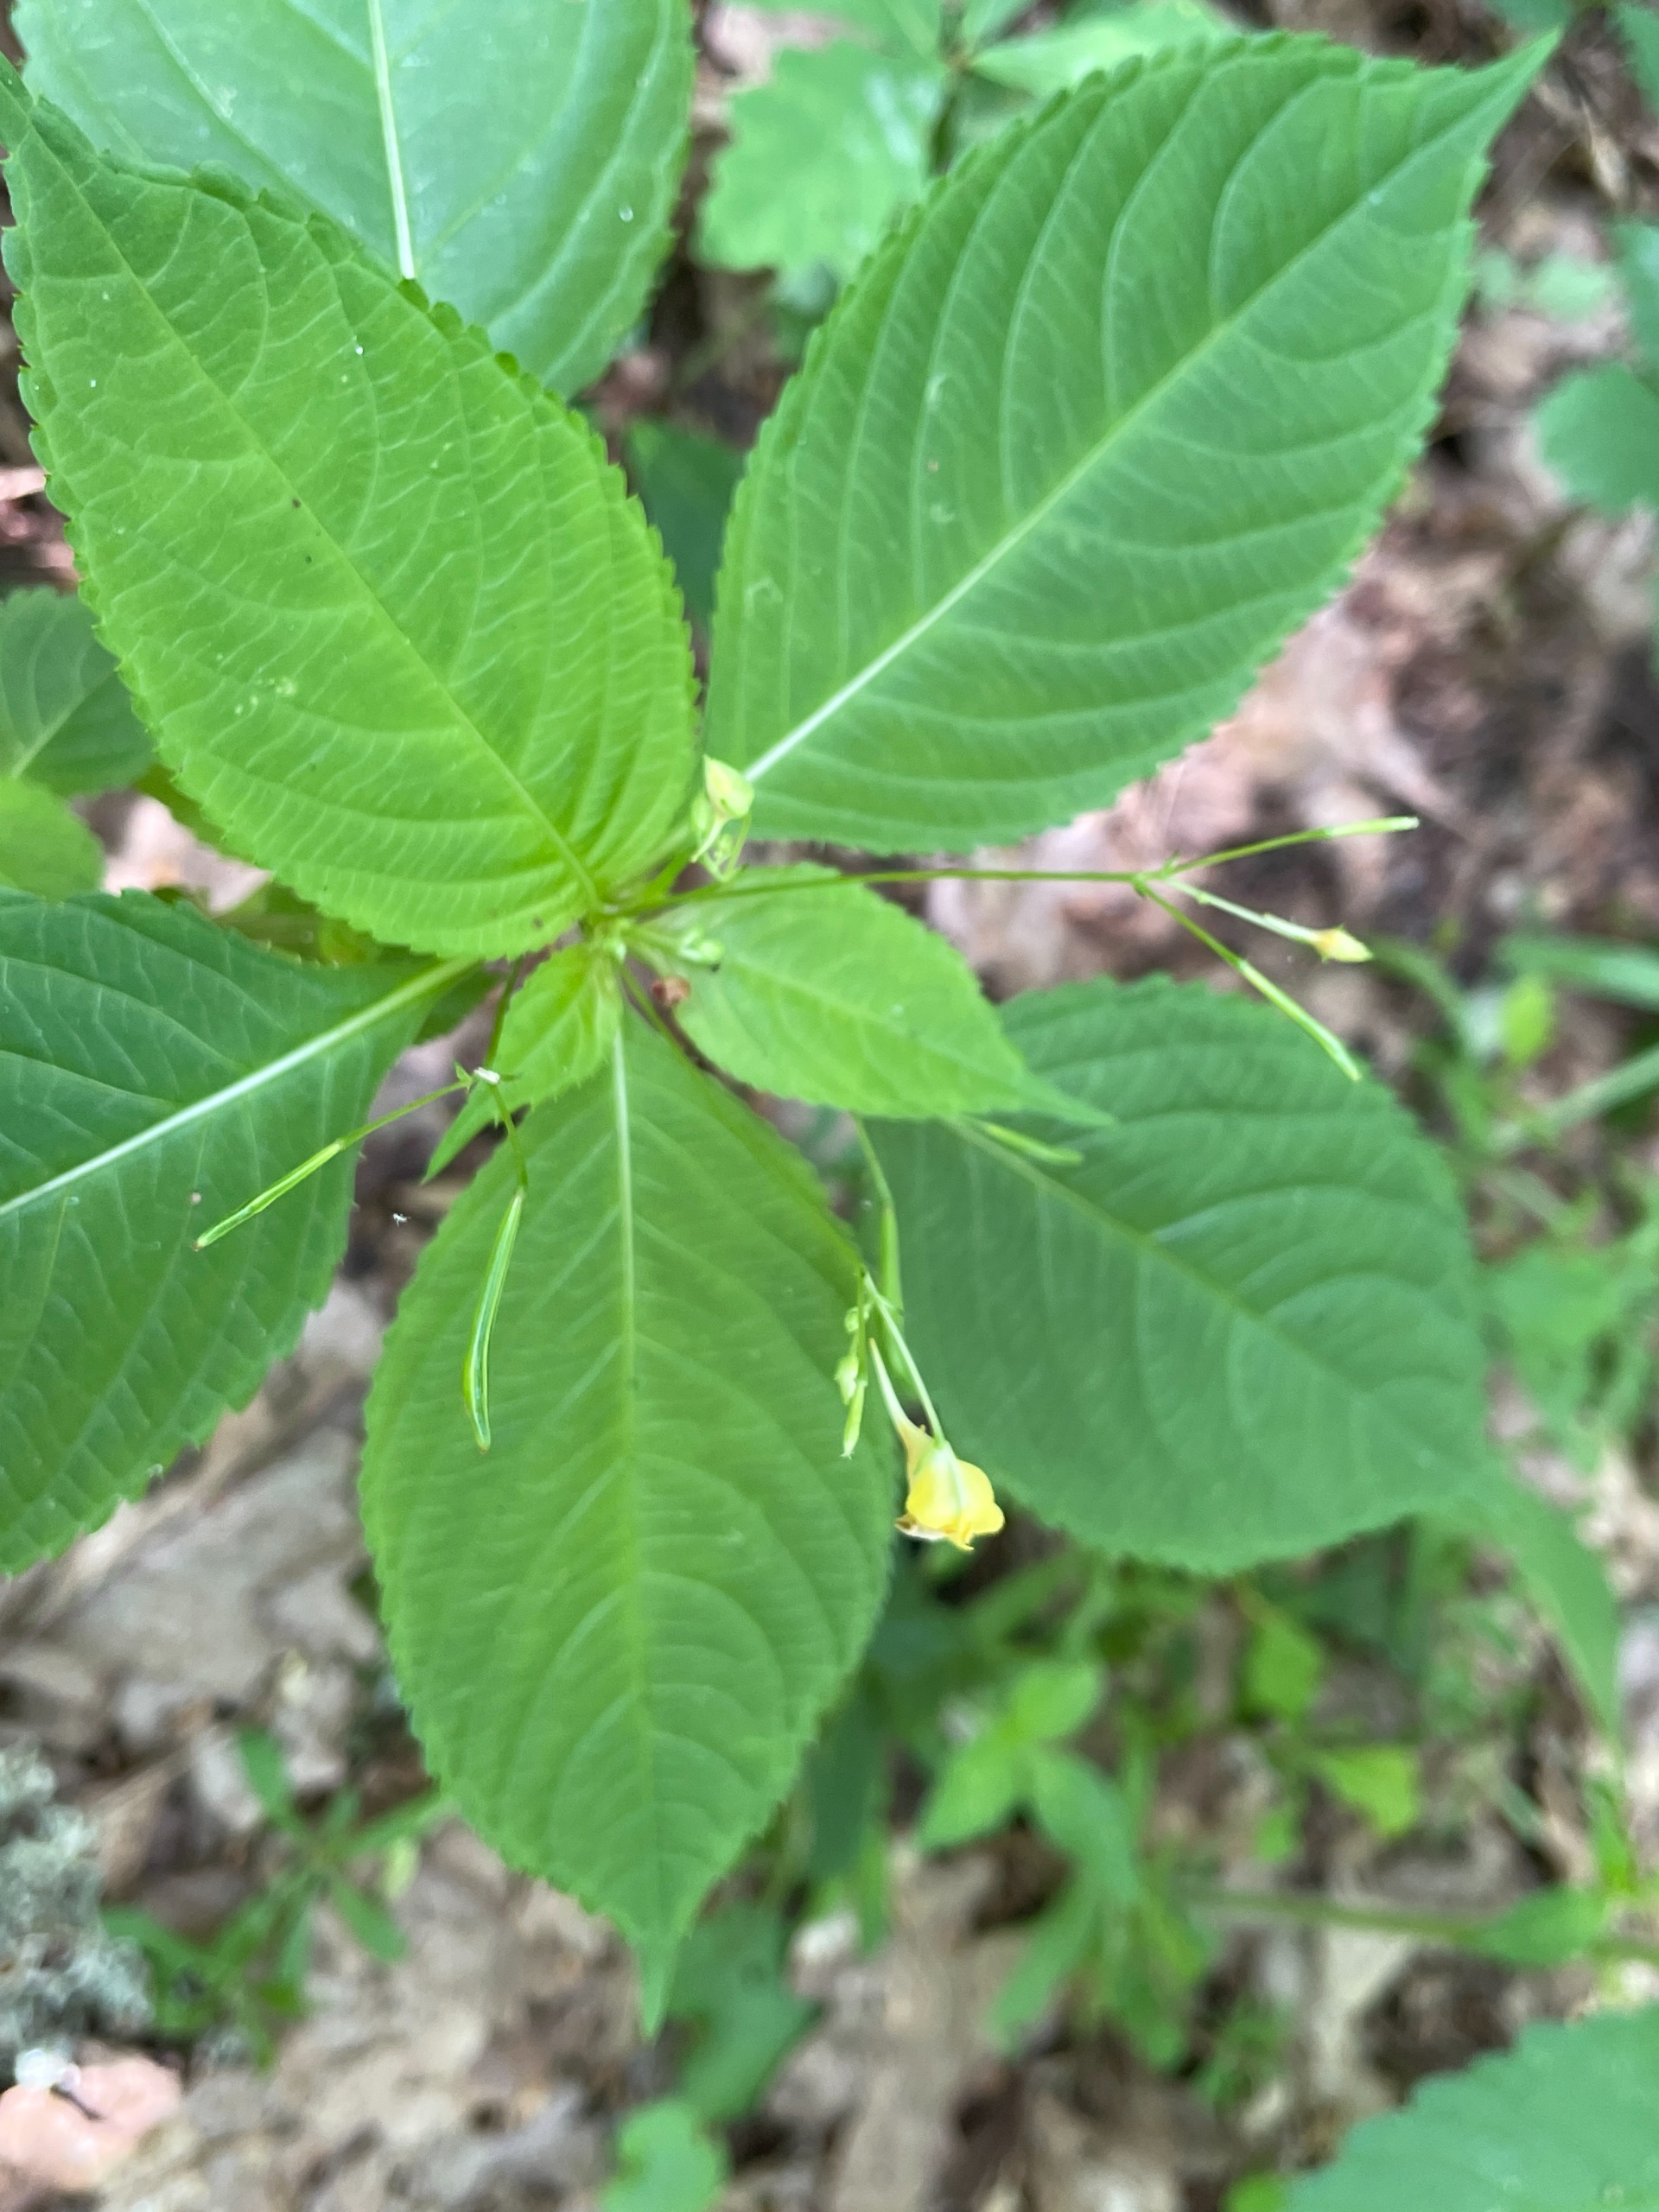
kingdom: Plantae
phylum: Tracheophyta
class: Magnoliopsida
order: Ericales
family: Balsaminaceae
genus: Impatiens
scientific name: Impatiens parviflora
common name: Småblomstret balsamin
